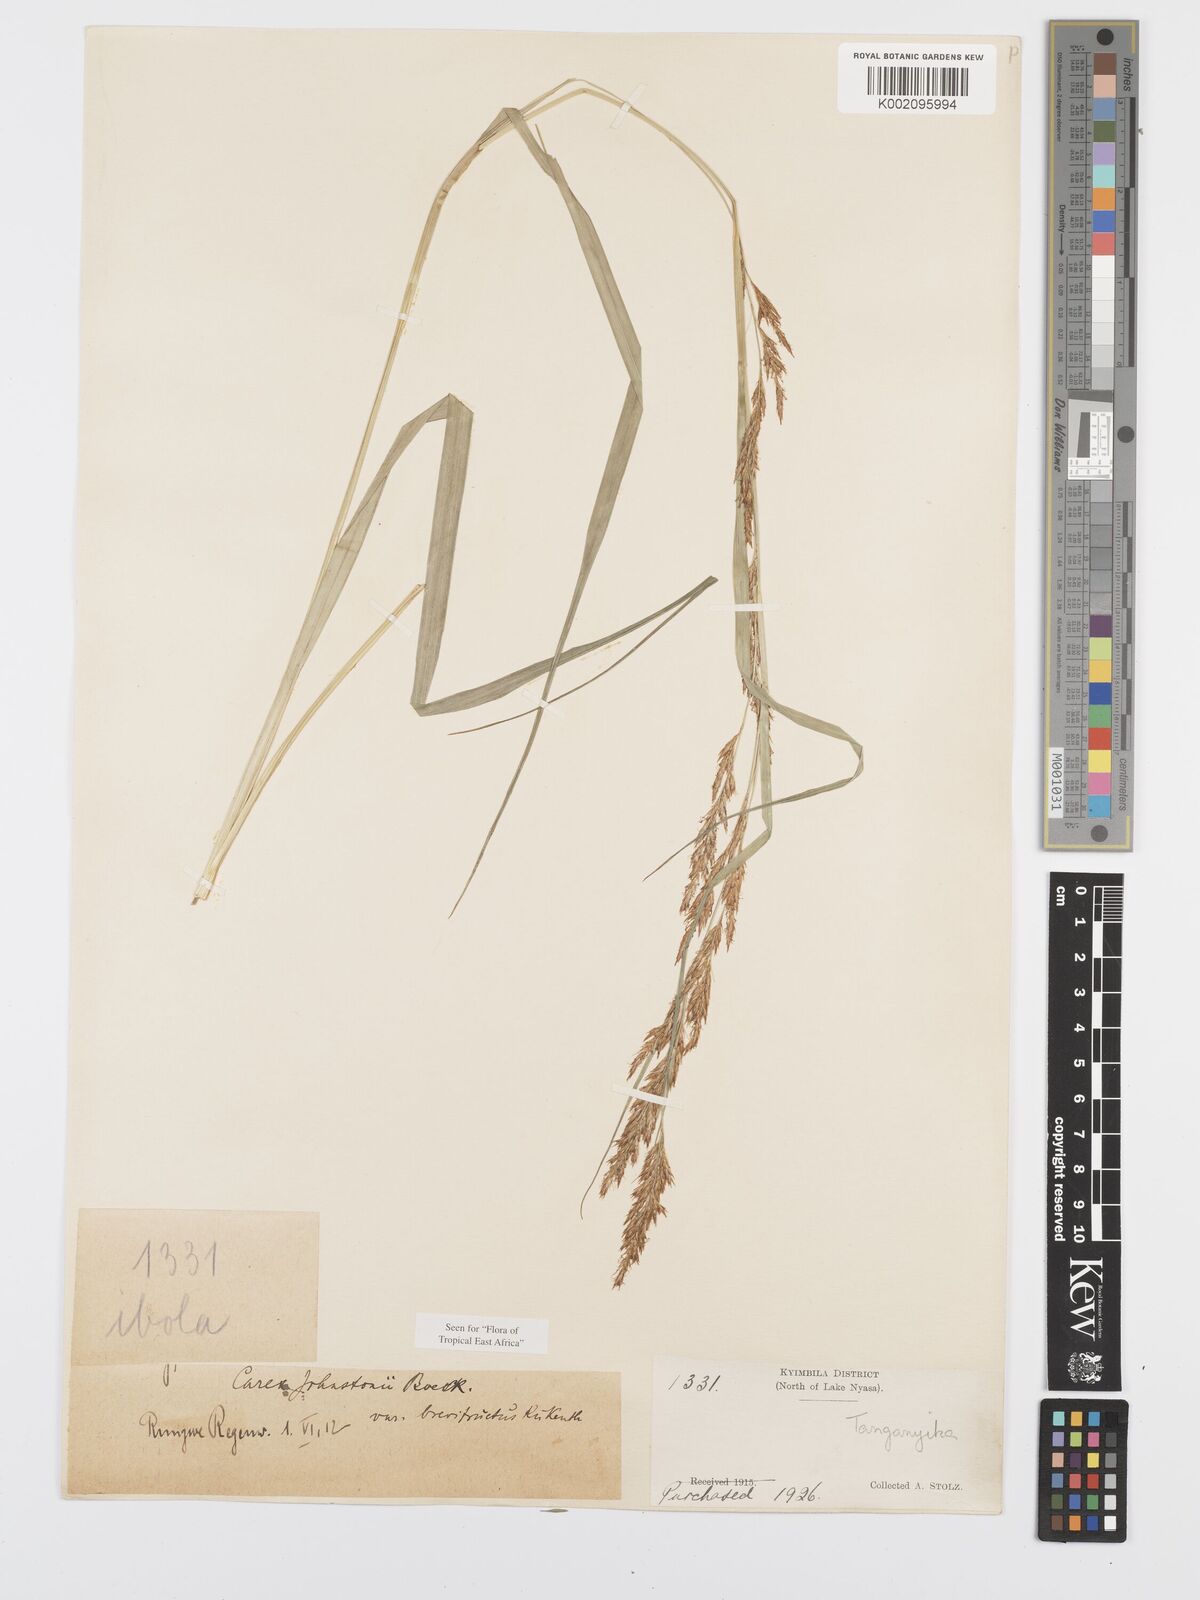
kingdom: Plantae
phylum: Tracheophyta
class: Liliopsida
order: Poales
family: Cyperaceae
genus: Carex
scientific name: Carex johnstonii
